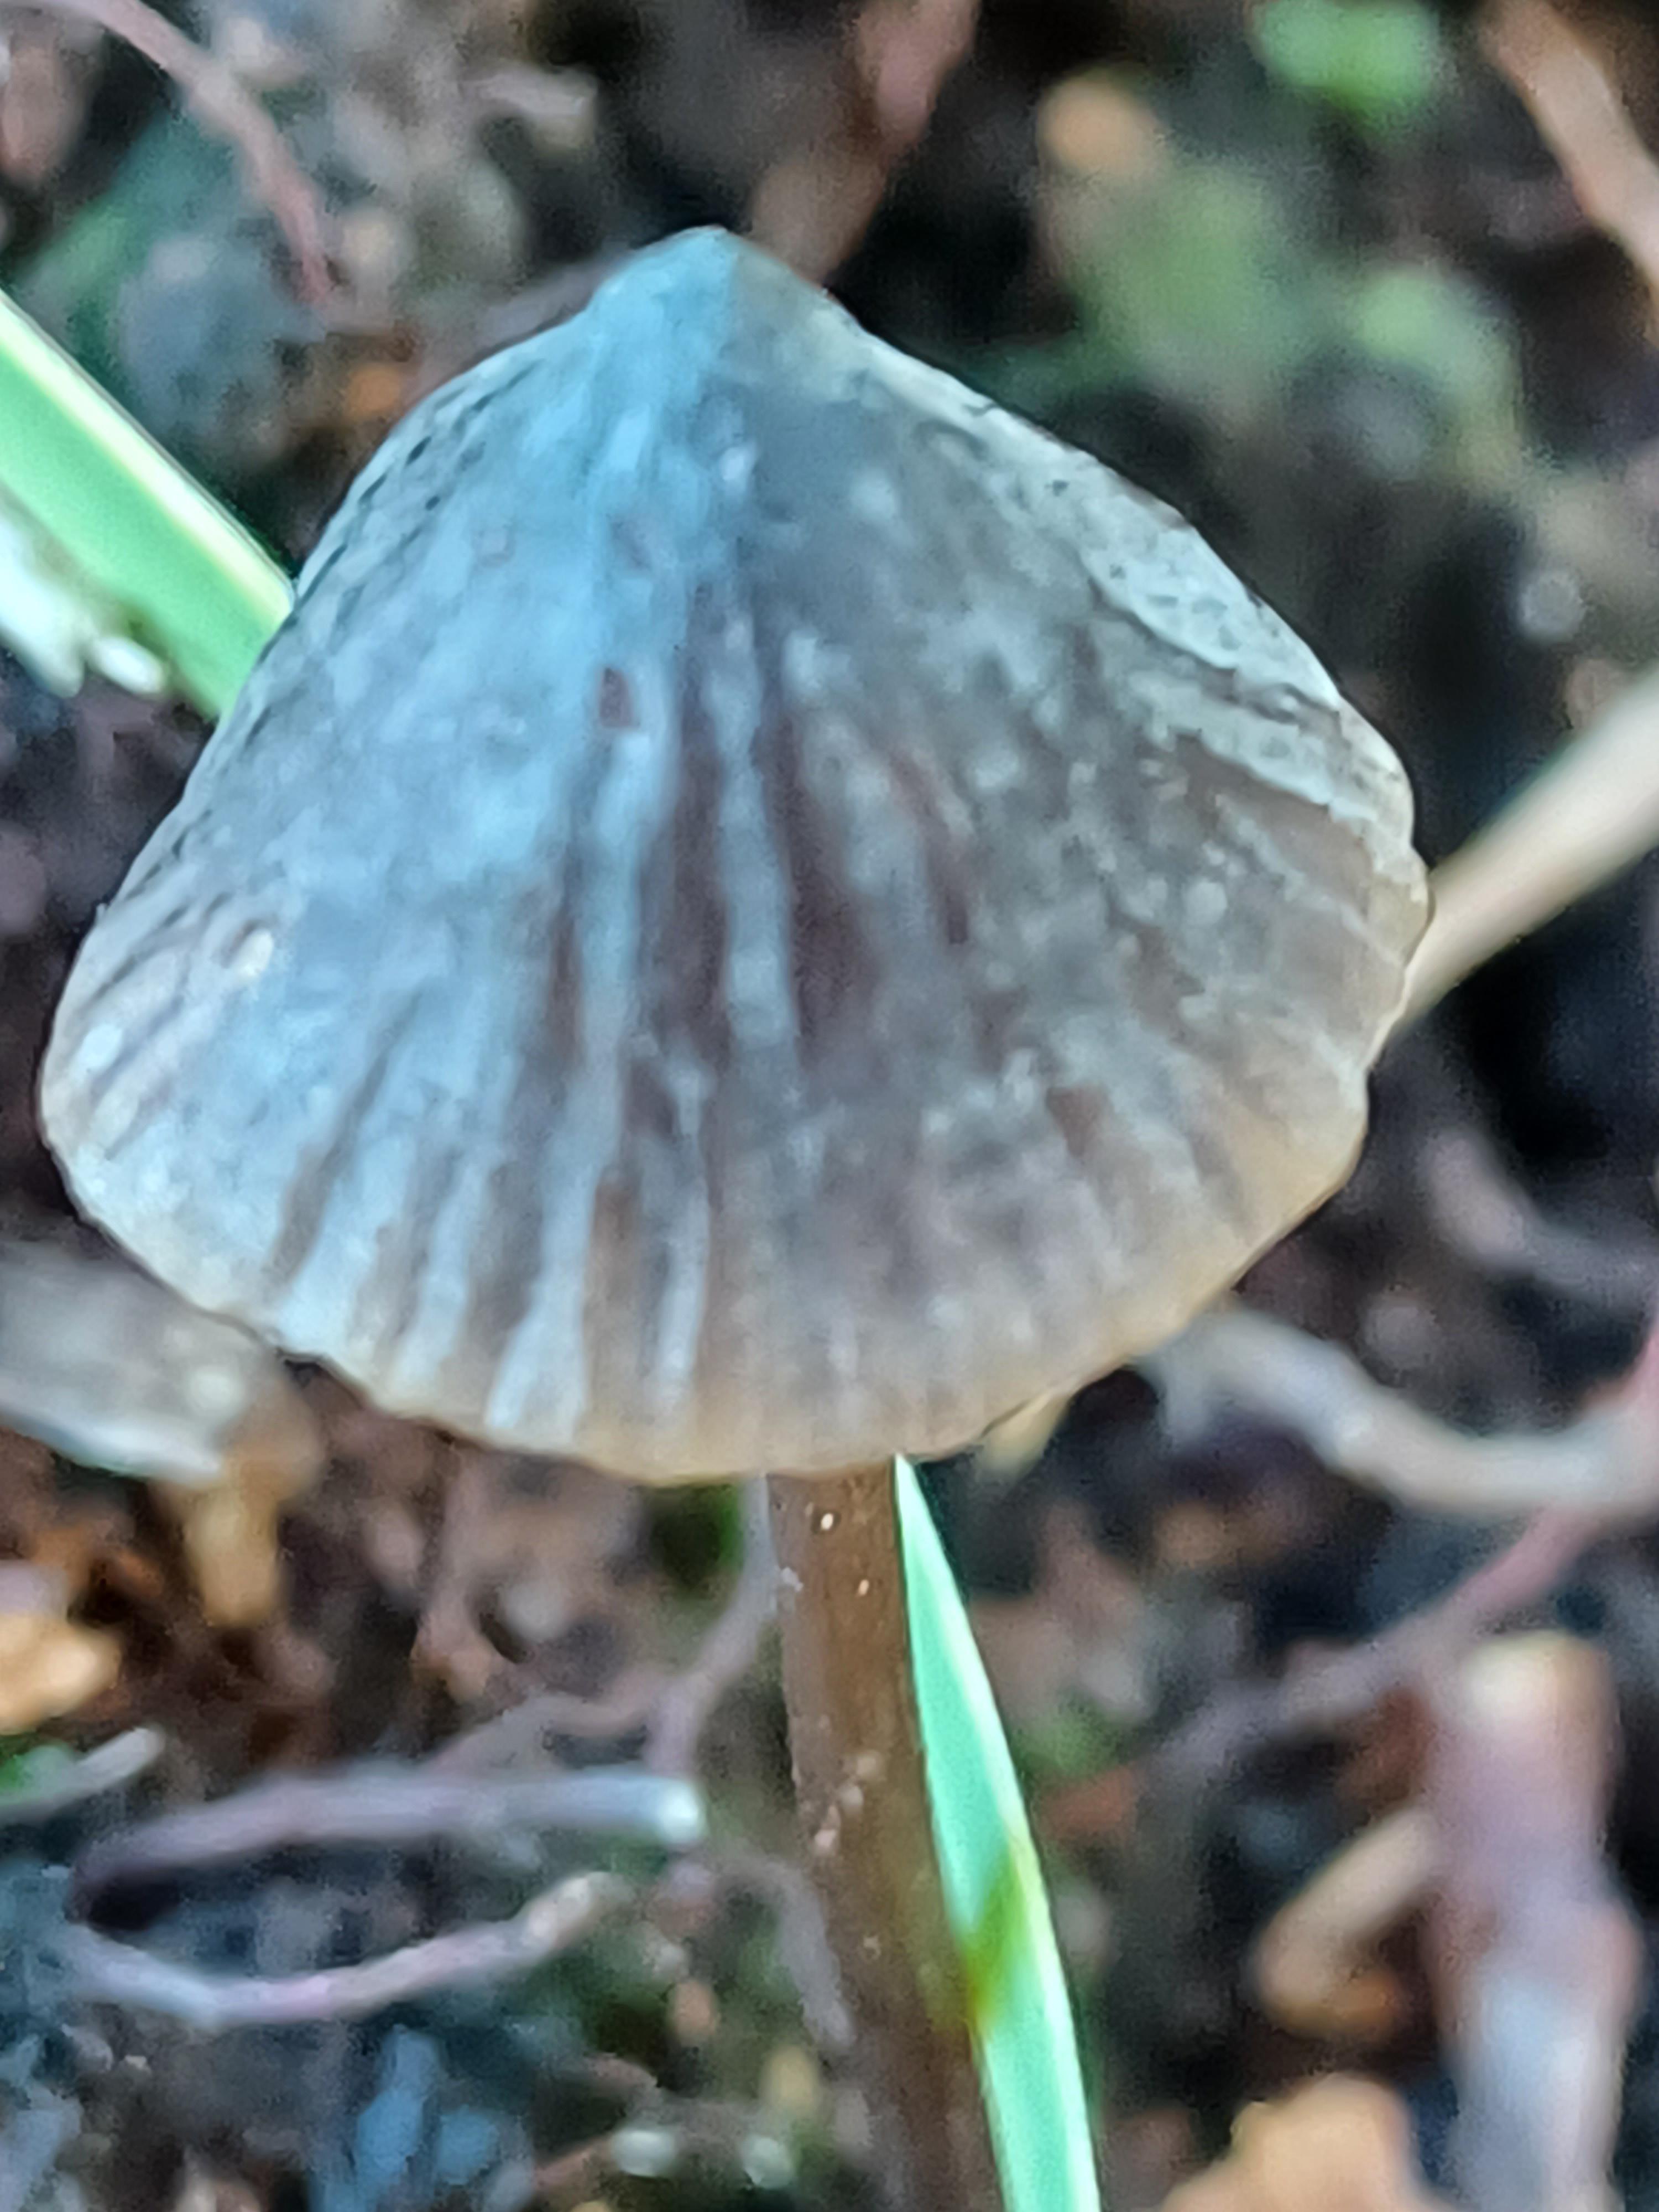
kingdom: Fungi
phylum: Basidiomycota
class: Agaricomycetes
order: Agaricales
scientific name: Agaricales
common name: champignonordenen
